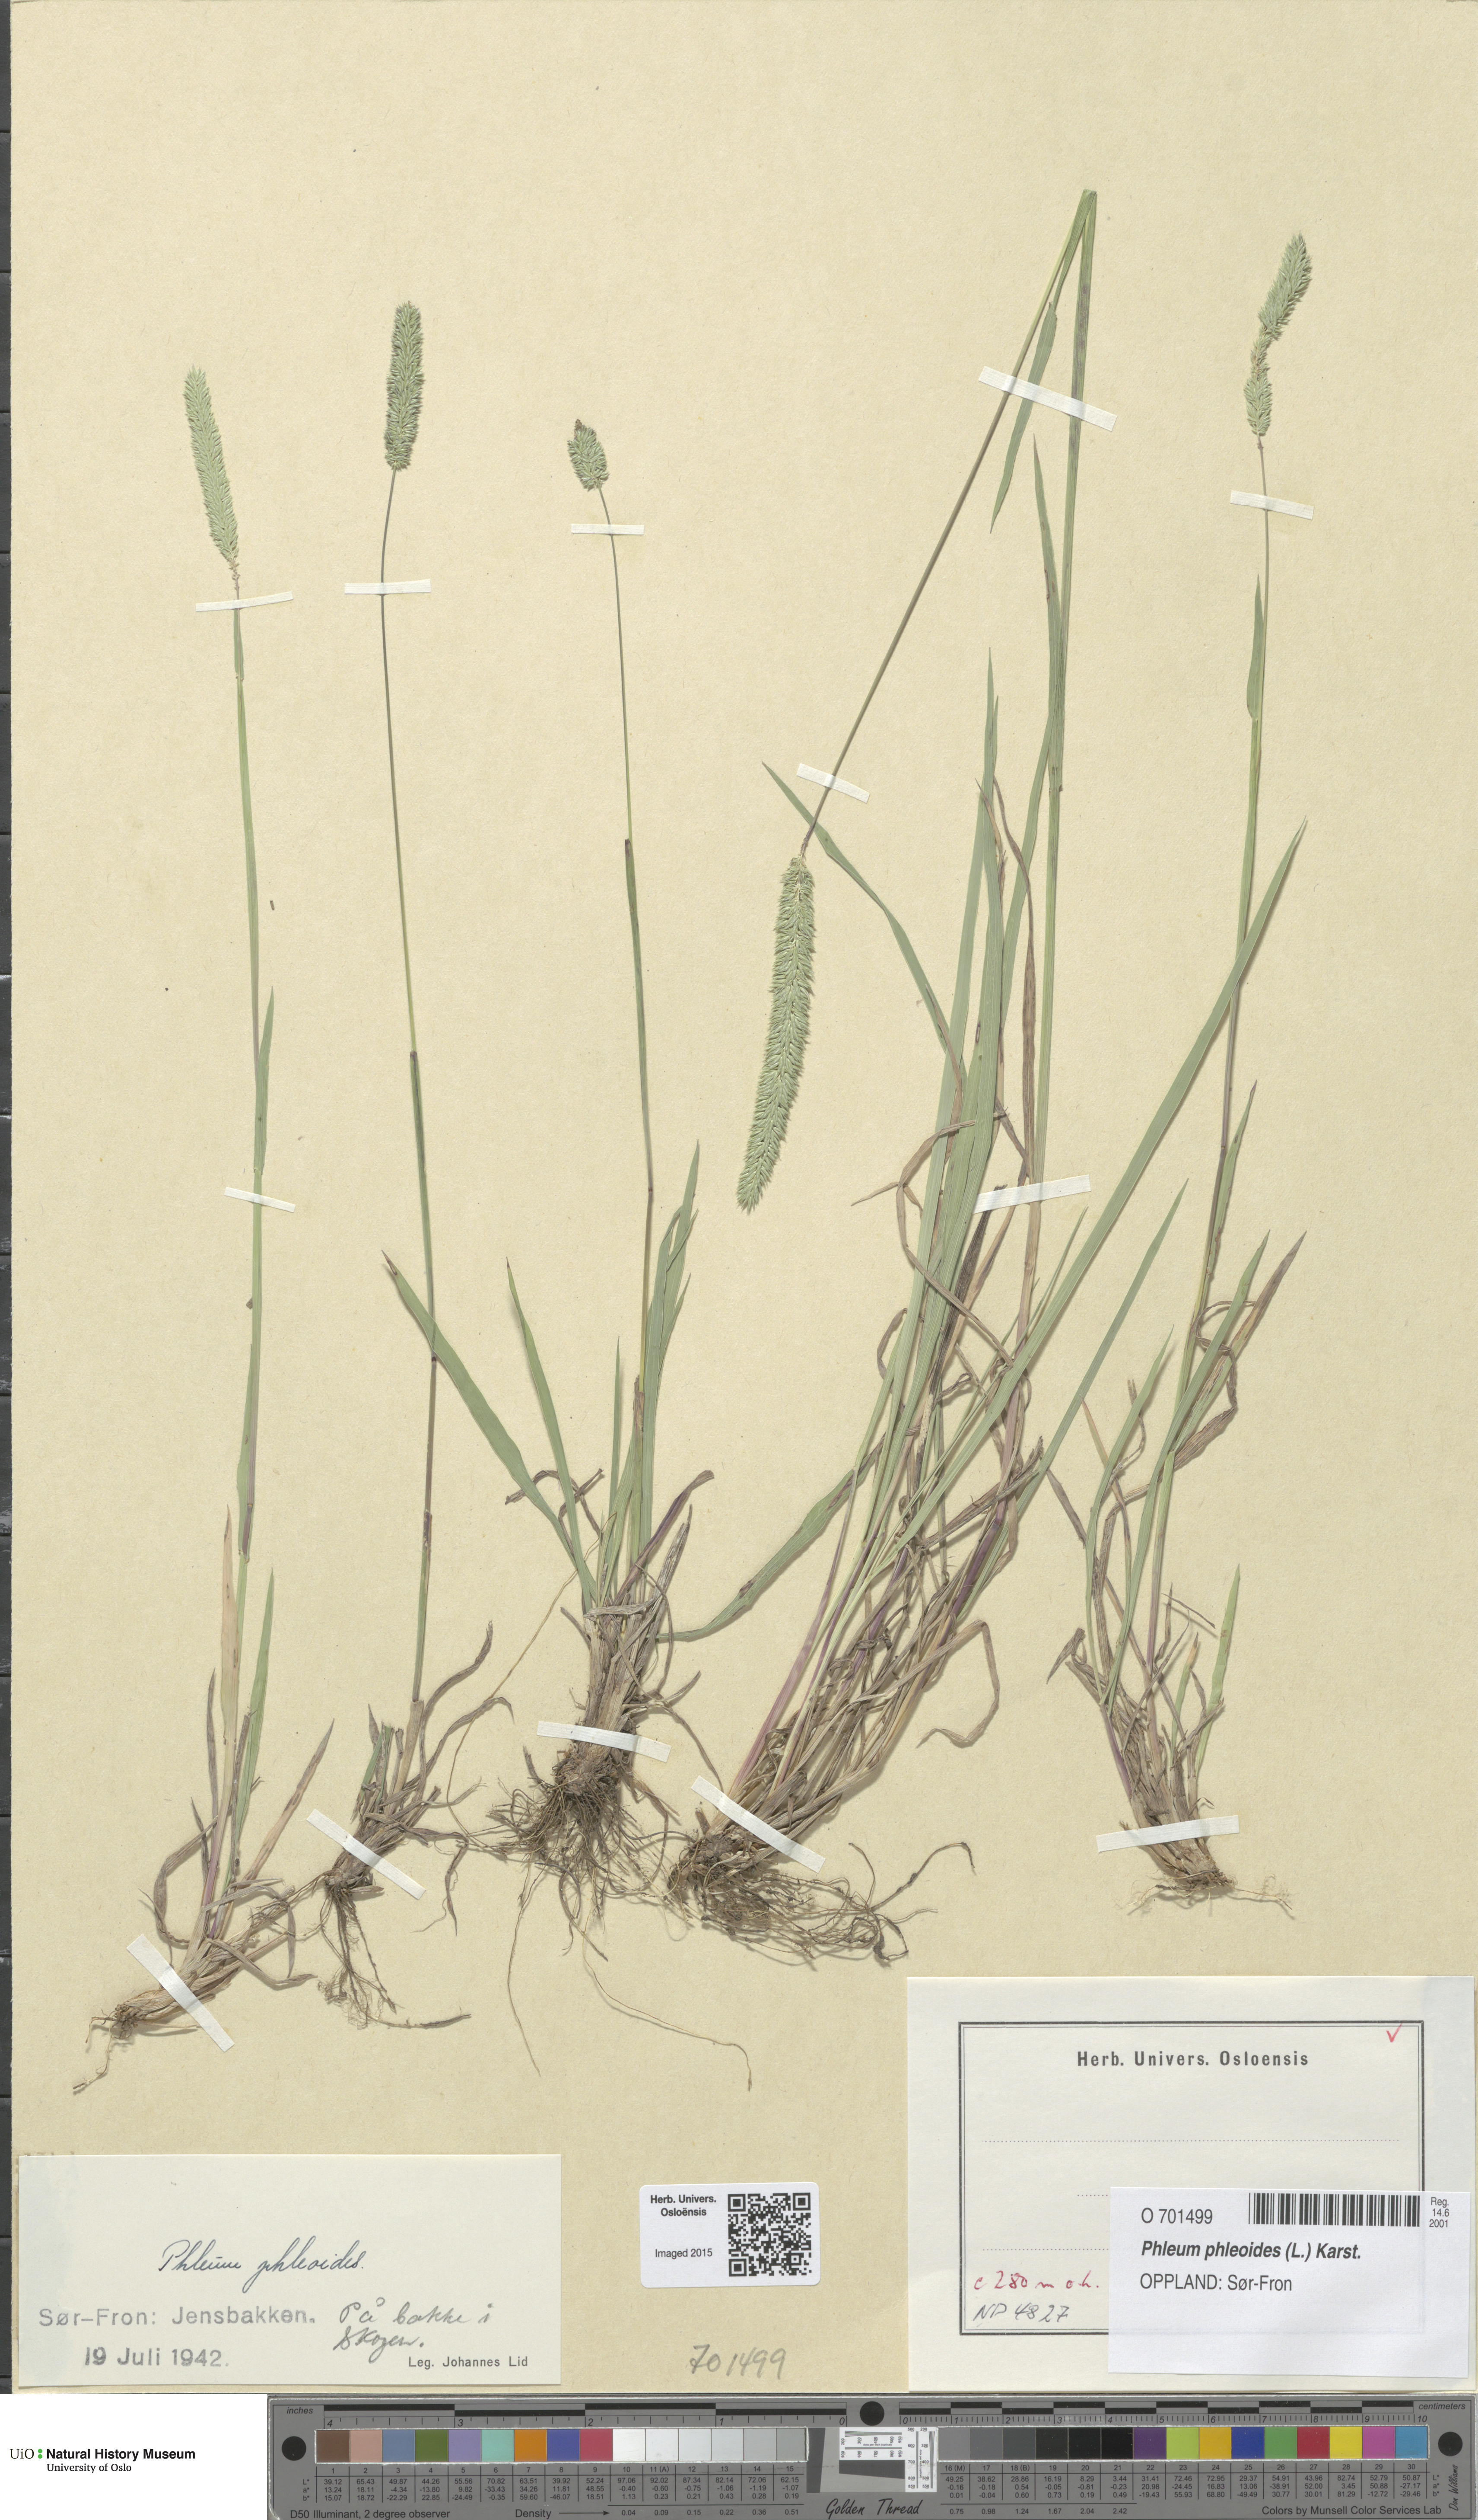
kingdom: Plantae
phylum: Tracheophyta
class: Liliopsida
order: Poales
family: Poaceae
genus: Phleum
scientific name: Phleum phleoides
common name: Purple-stem cat's-tail
